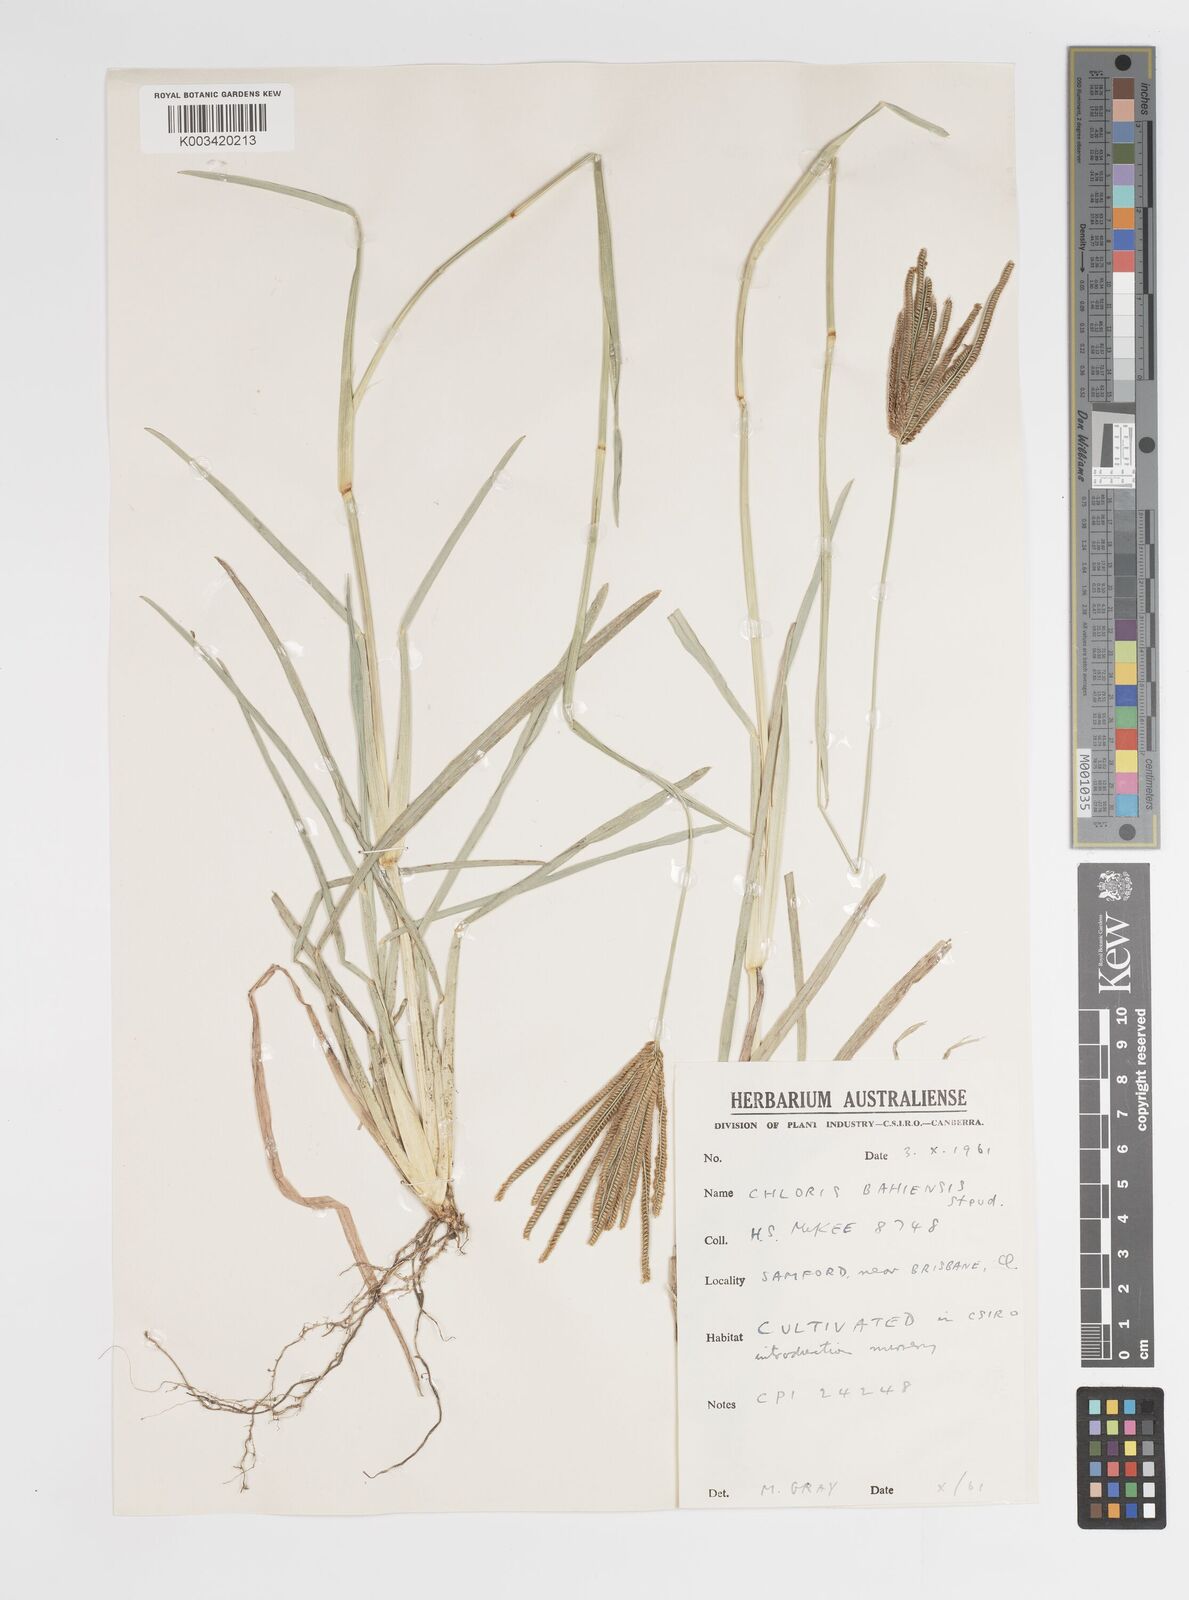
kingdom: Plantae
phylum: Tracheophyta
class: Liliopsida
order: Poales
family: Poaceae
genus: Eustachys
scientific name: Eustachys bahiensis
